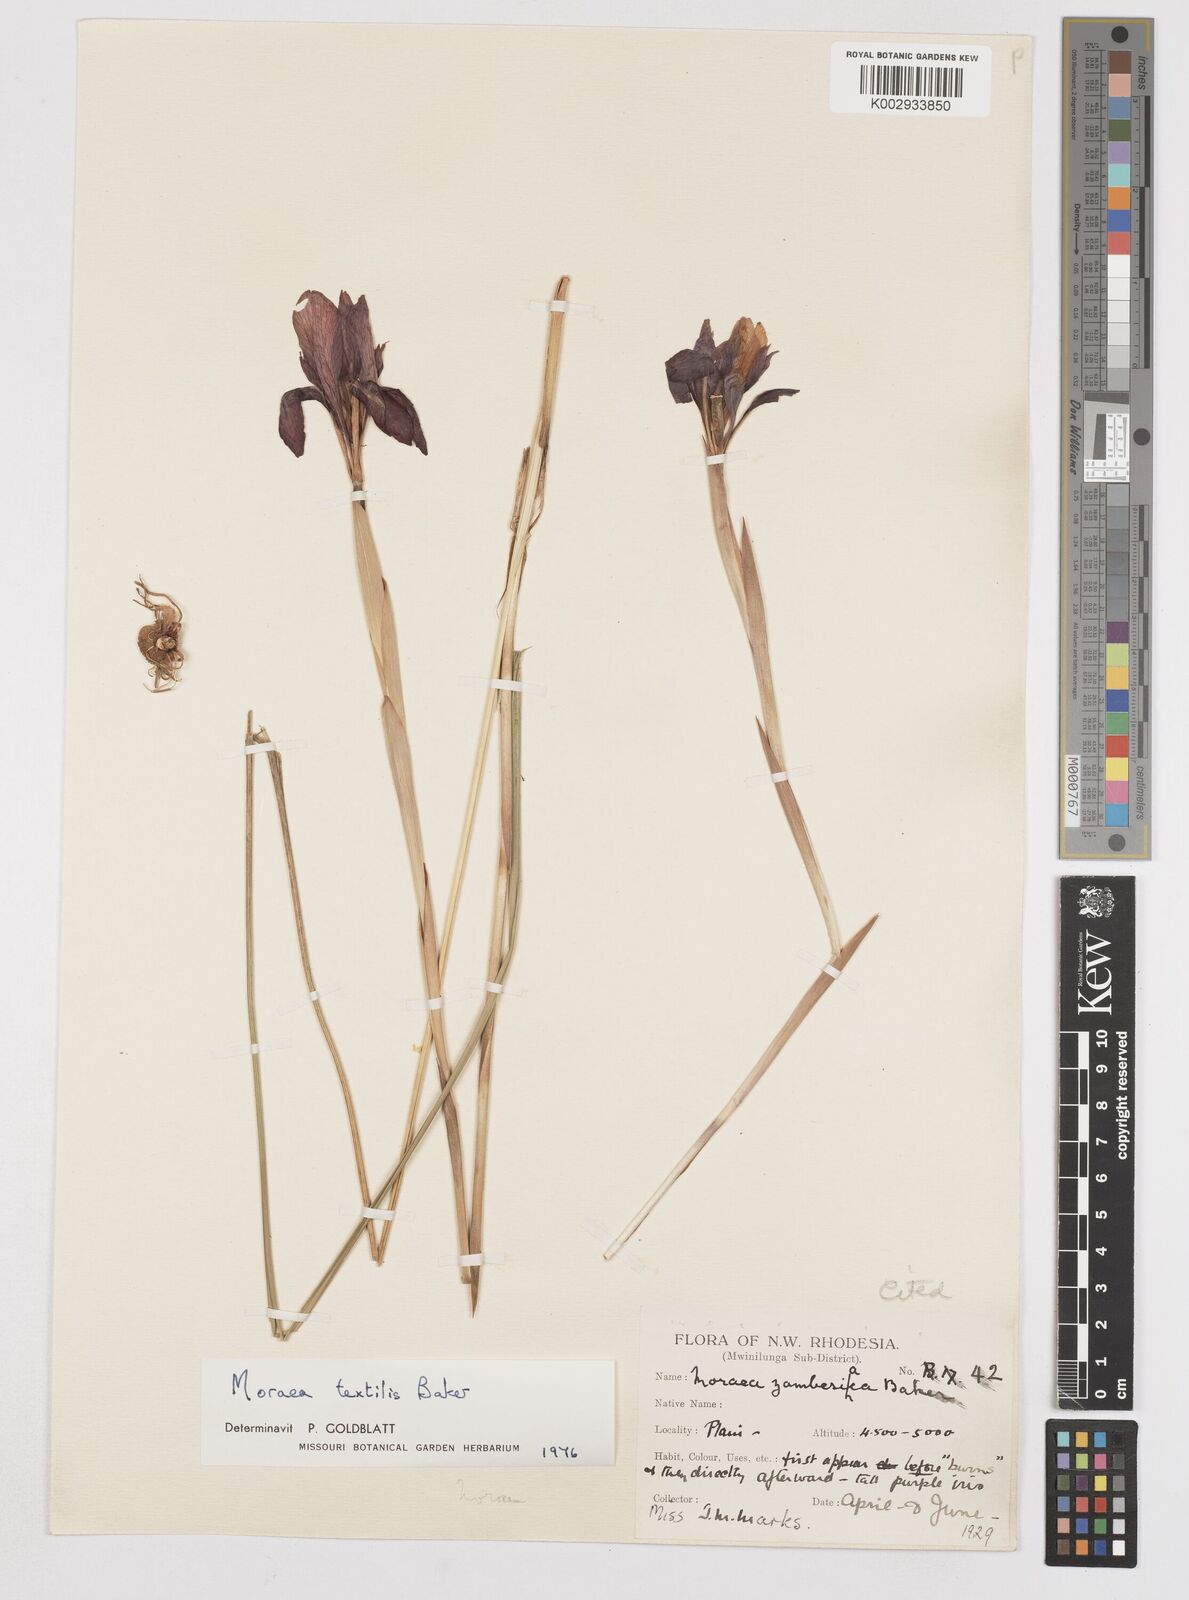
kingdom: Plantae
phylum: Tracheophyta
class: Liliopsida
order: Asparagales
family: Iridaceae
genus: Moraea
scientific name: Moraea textilis
